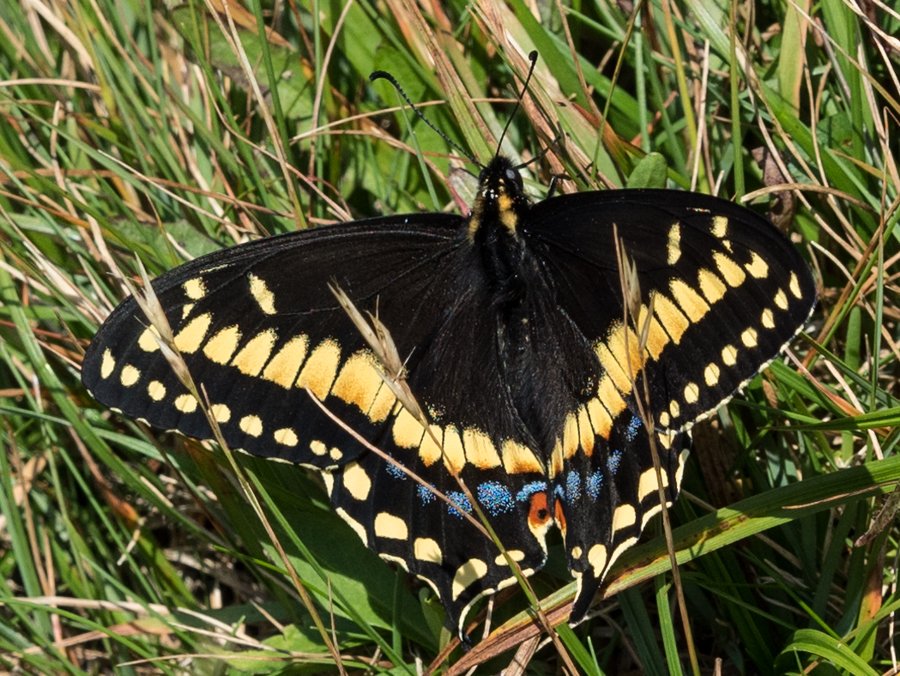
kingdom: Animalia
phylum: Arthropoda
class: Insecta
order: Lepidoptera
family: Papilionidae
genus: Papilio
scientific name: Papilio brevicauda
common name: Short-tailed Swallowtail
